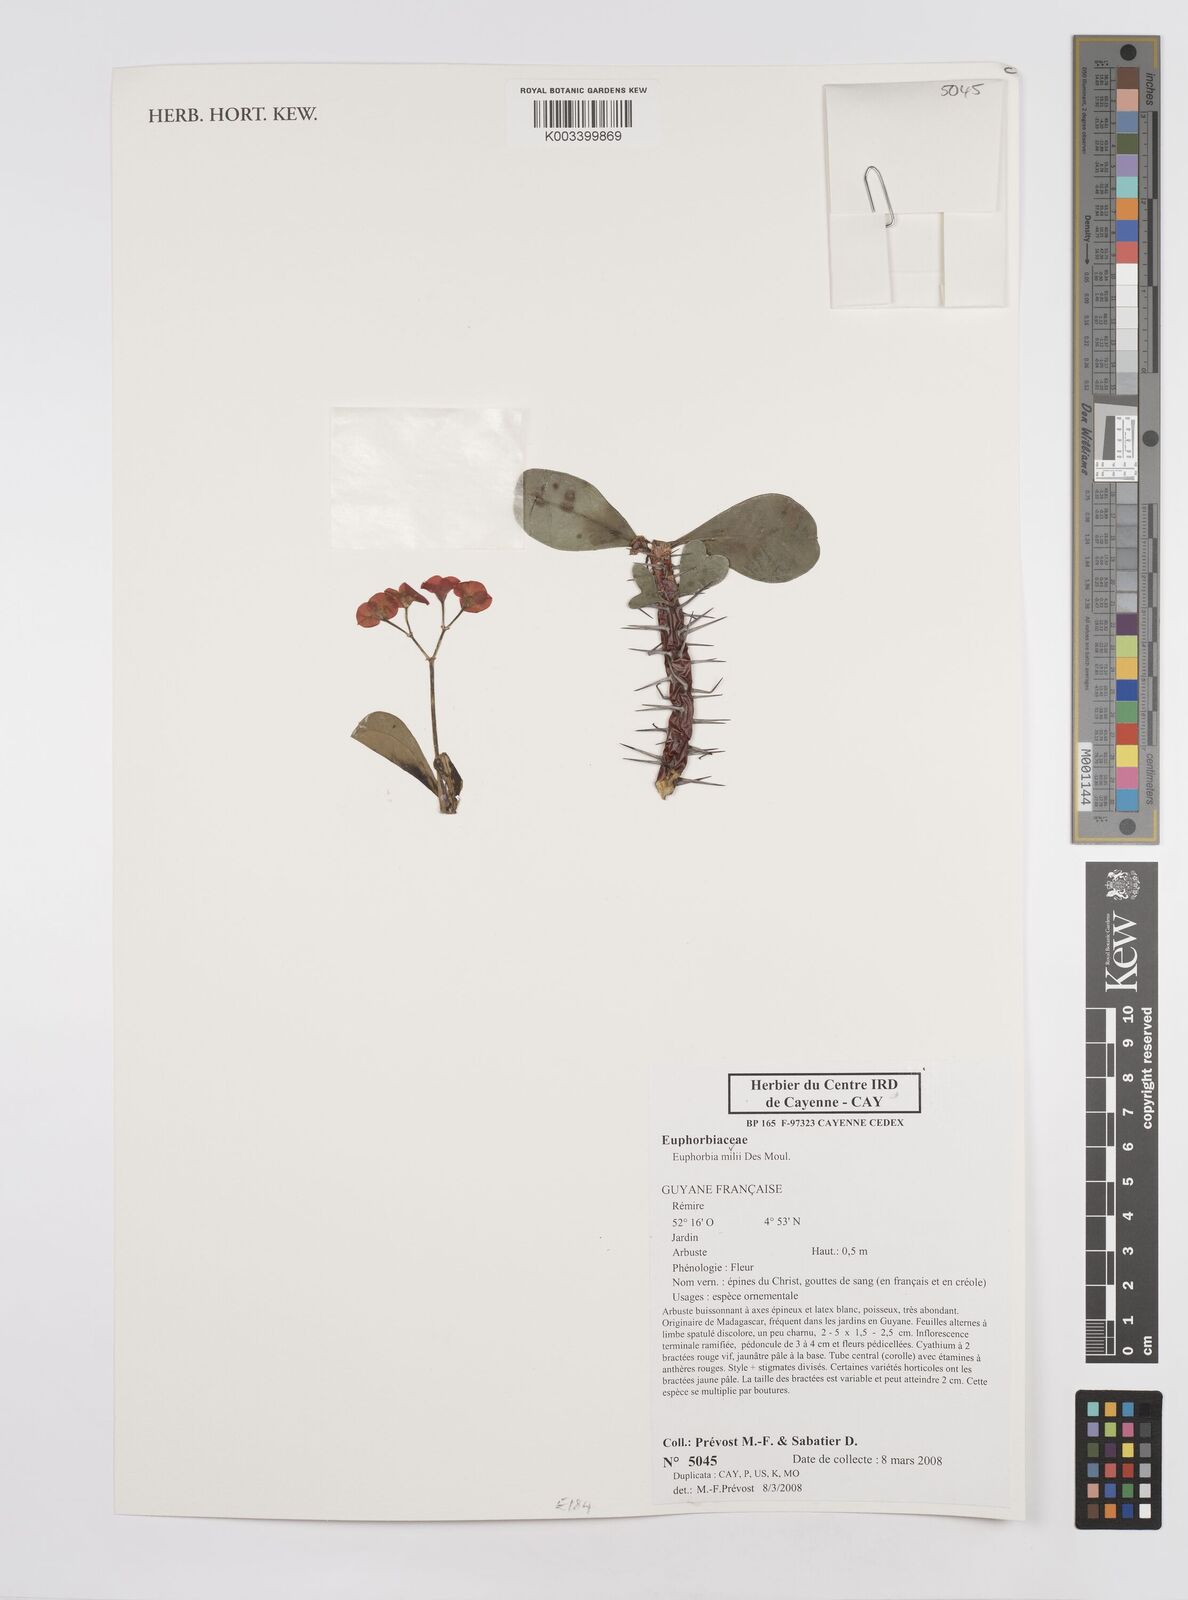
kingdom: Plantae
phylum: Tracheophyta
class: Magnoliopsida
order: Malpighiales
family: Euphorbiaceae
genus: Euphorbia
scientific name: Euphorbia milii
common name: Christplant
